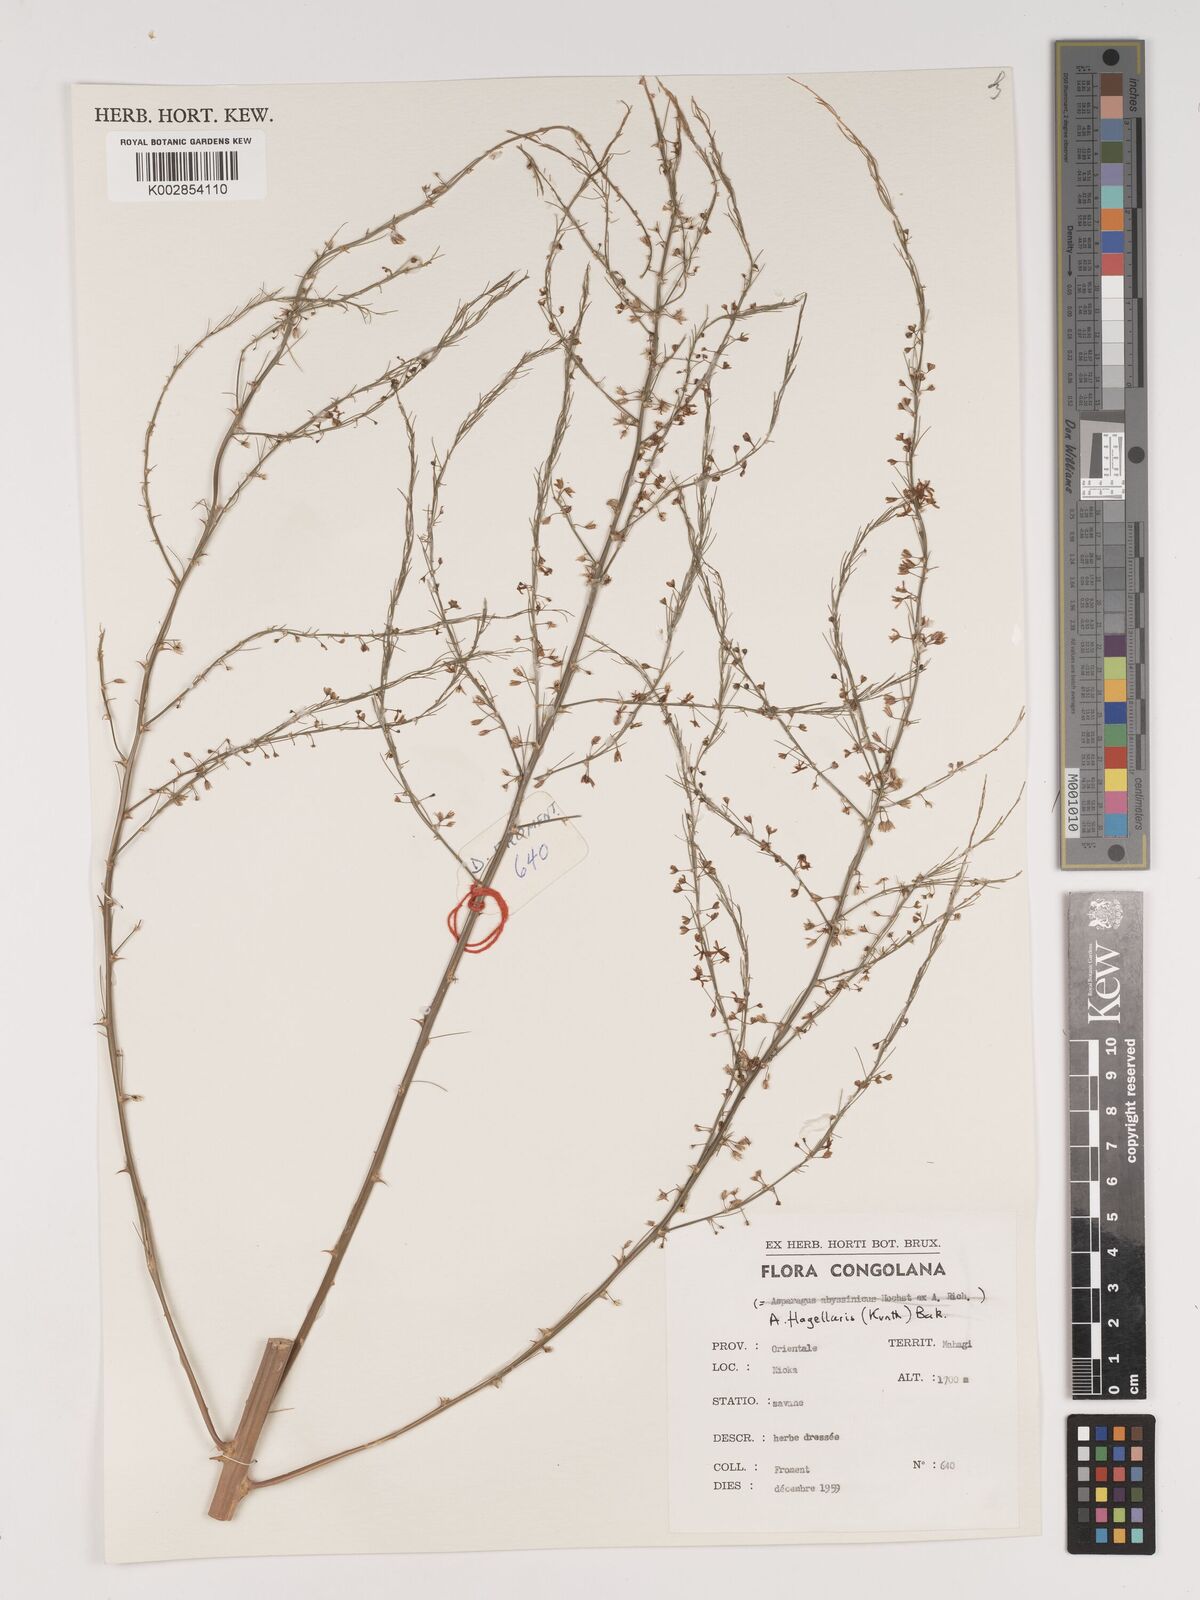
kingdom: Plantae
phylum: Tracheophyta
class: Liliopsida
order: Asparagales
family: Asparagaceae
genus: Asparagus
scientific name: Asparagus flagellaris
